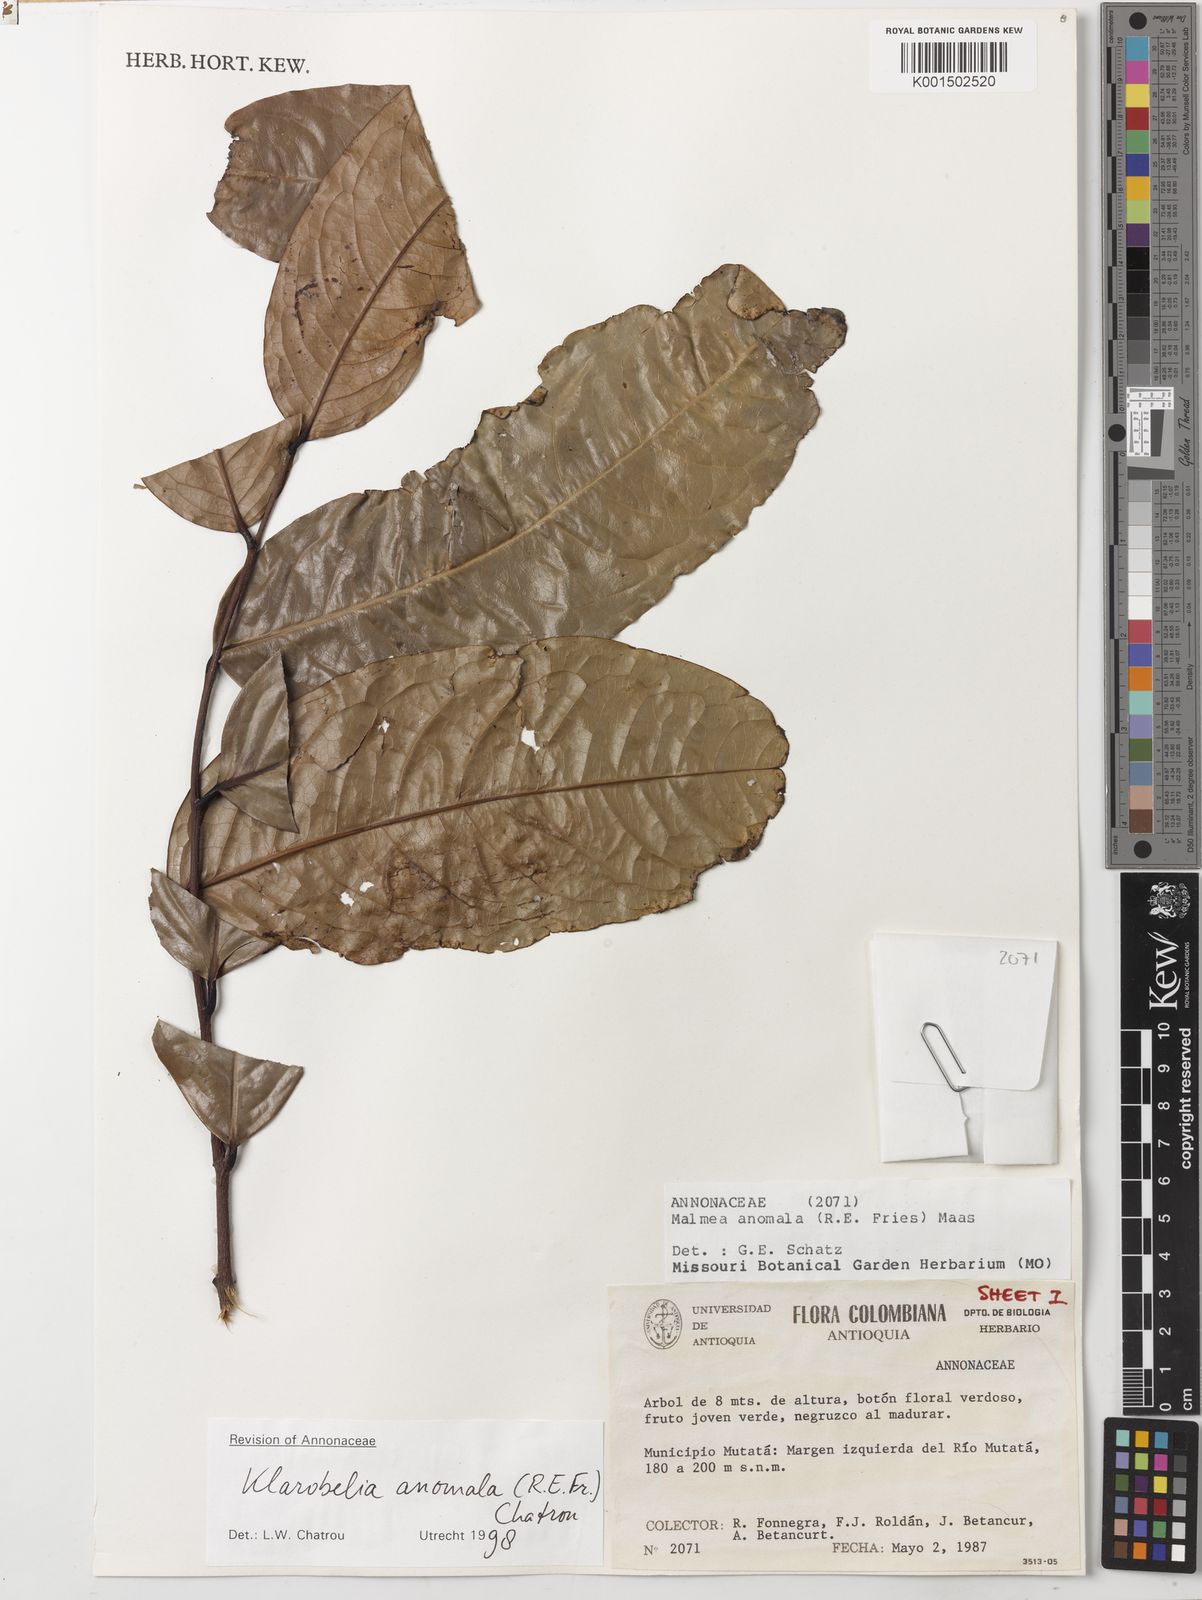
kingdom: Plantae
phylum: Tracheophyta
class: Magnoliopsida
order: Magnoliales
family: Annonaceae
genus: Klarobelia
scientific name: Klarobelia anomala
